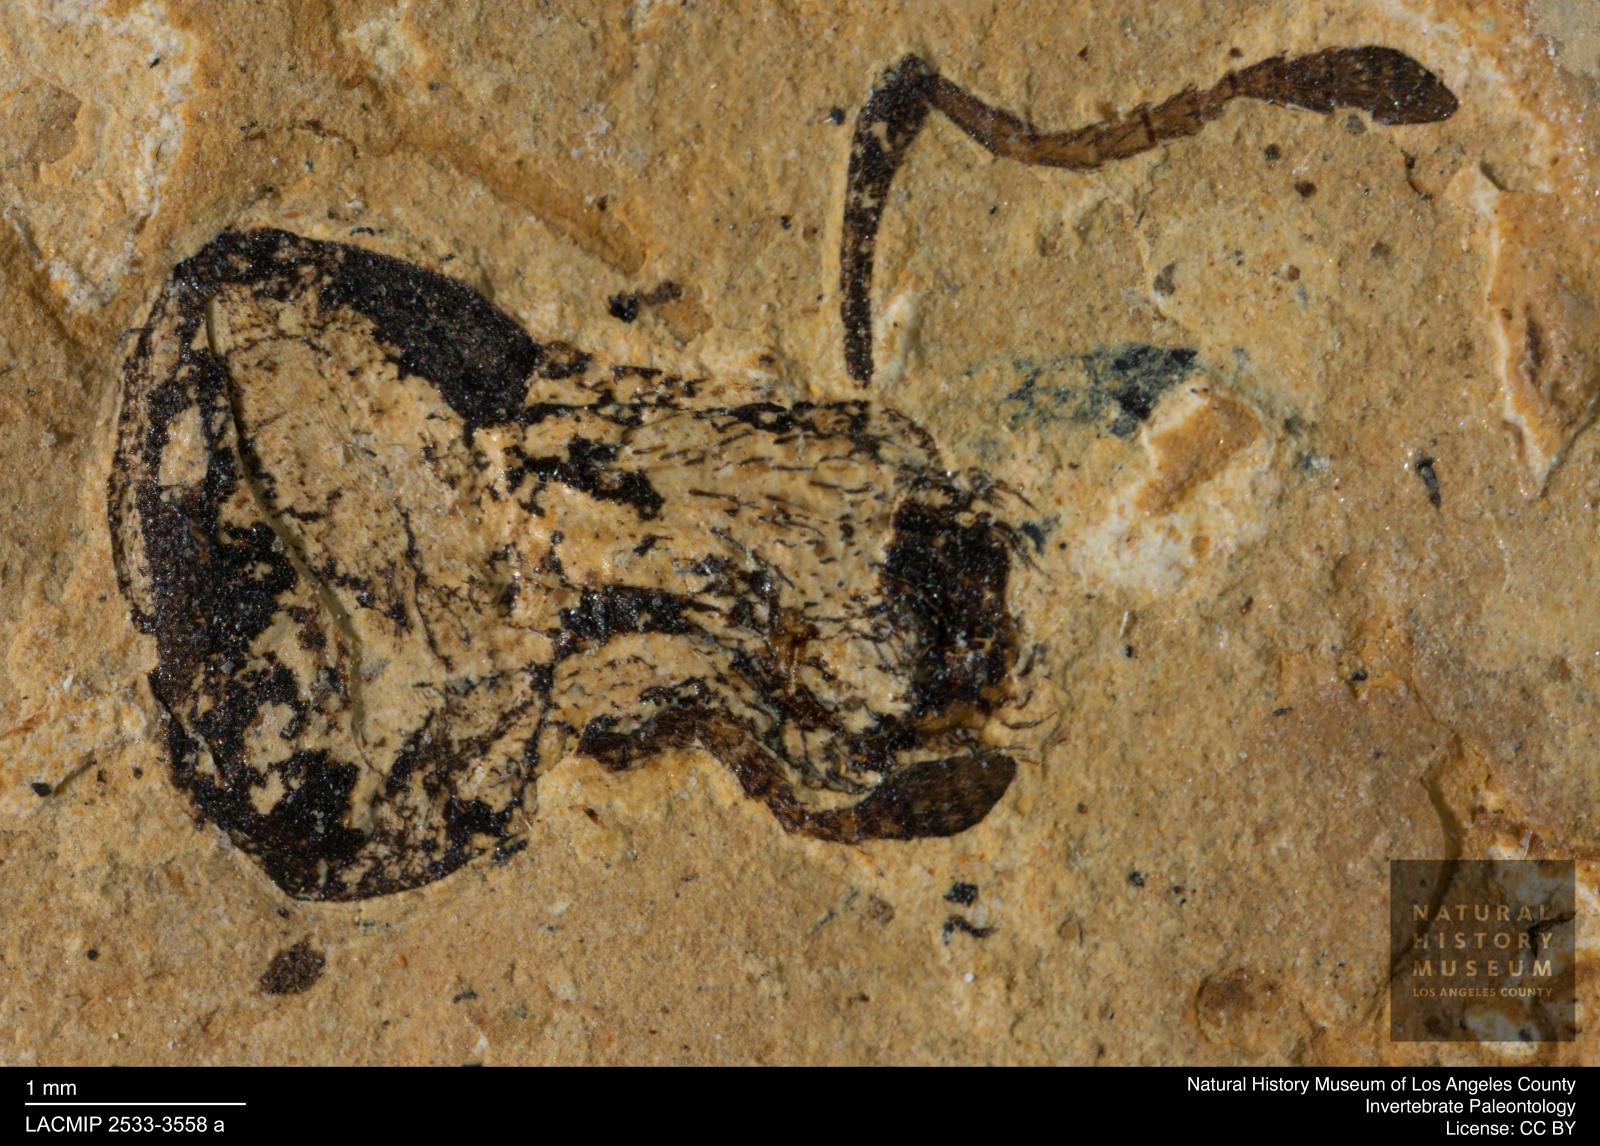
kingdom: Animalia
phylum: Arthropoda
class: Insecta
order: Coleoptera
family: Curculionidae
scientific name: Curculionidae
